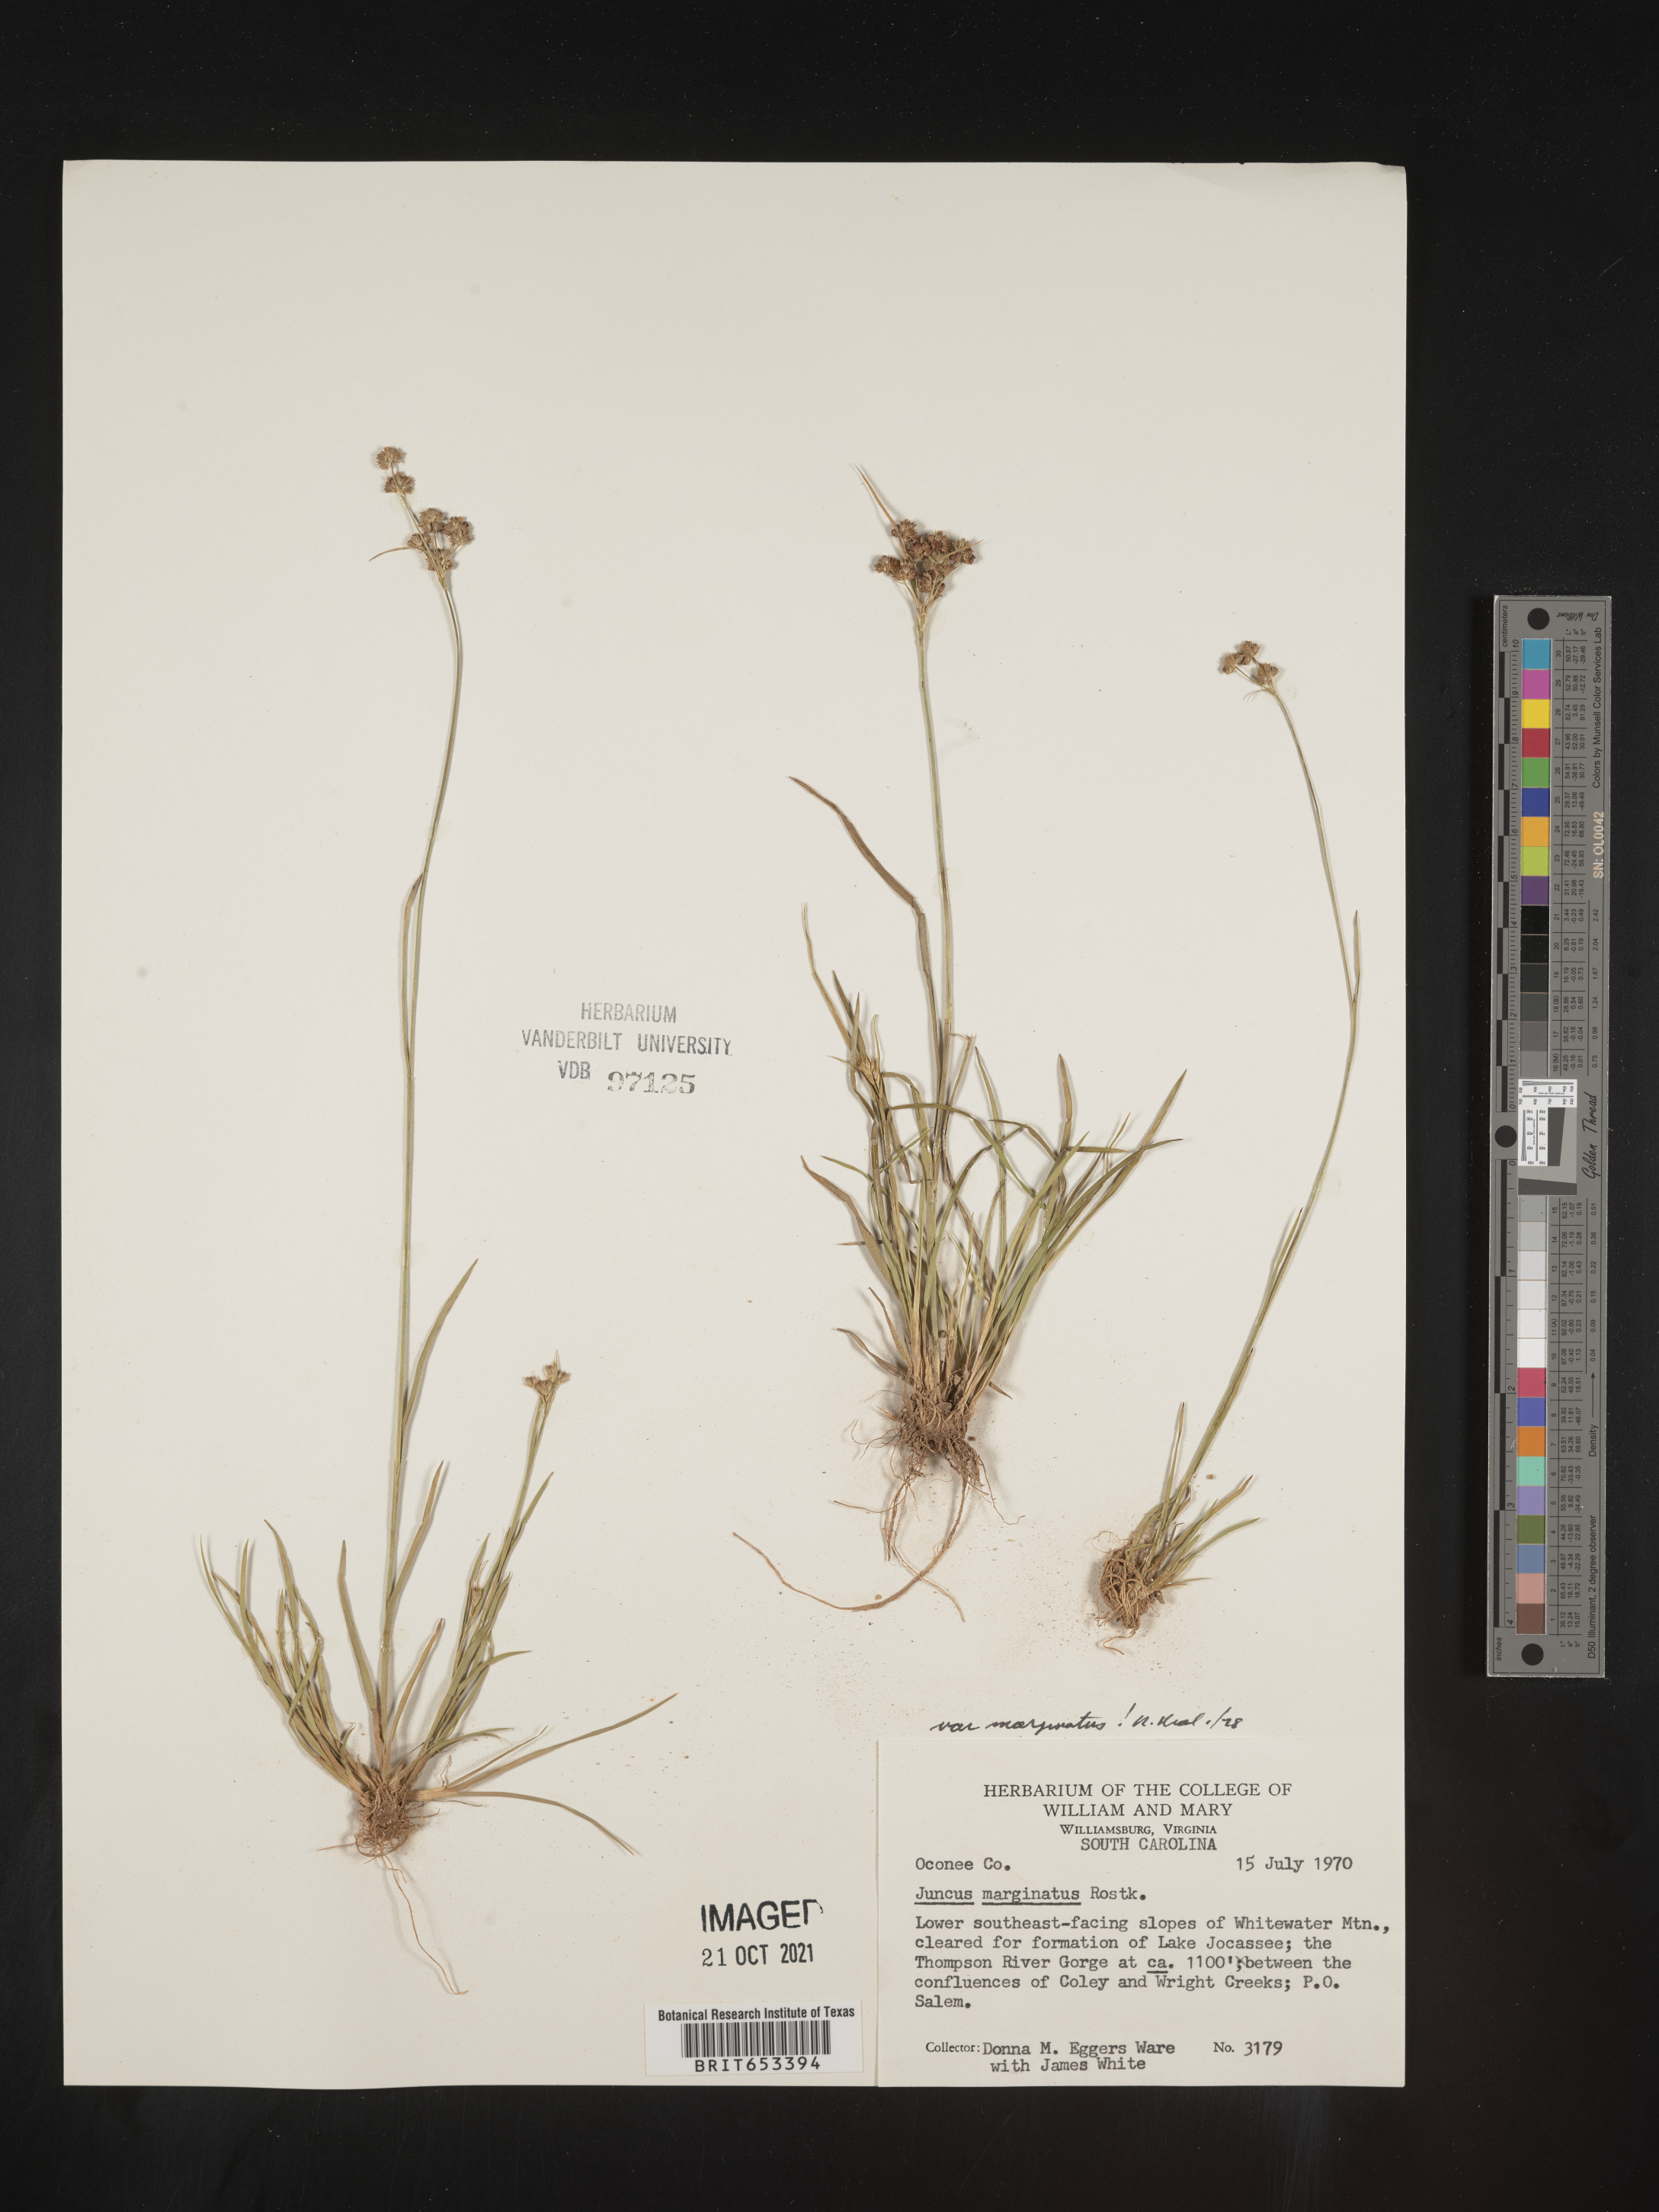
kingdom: Plantae
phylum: Tracheophyta
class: Liliopsida
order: Poales
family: Juncaceae
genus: Juncus
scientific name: Juncus marginatus
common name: Grass-leaf rush
